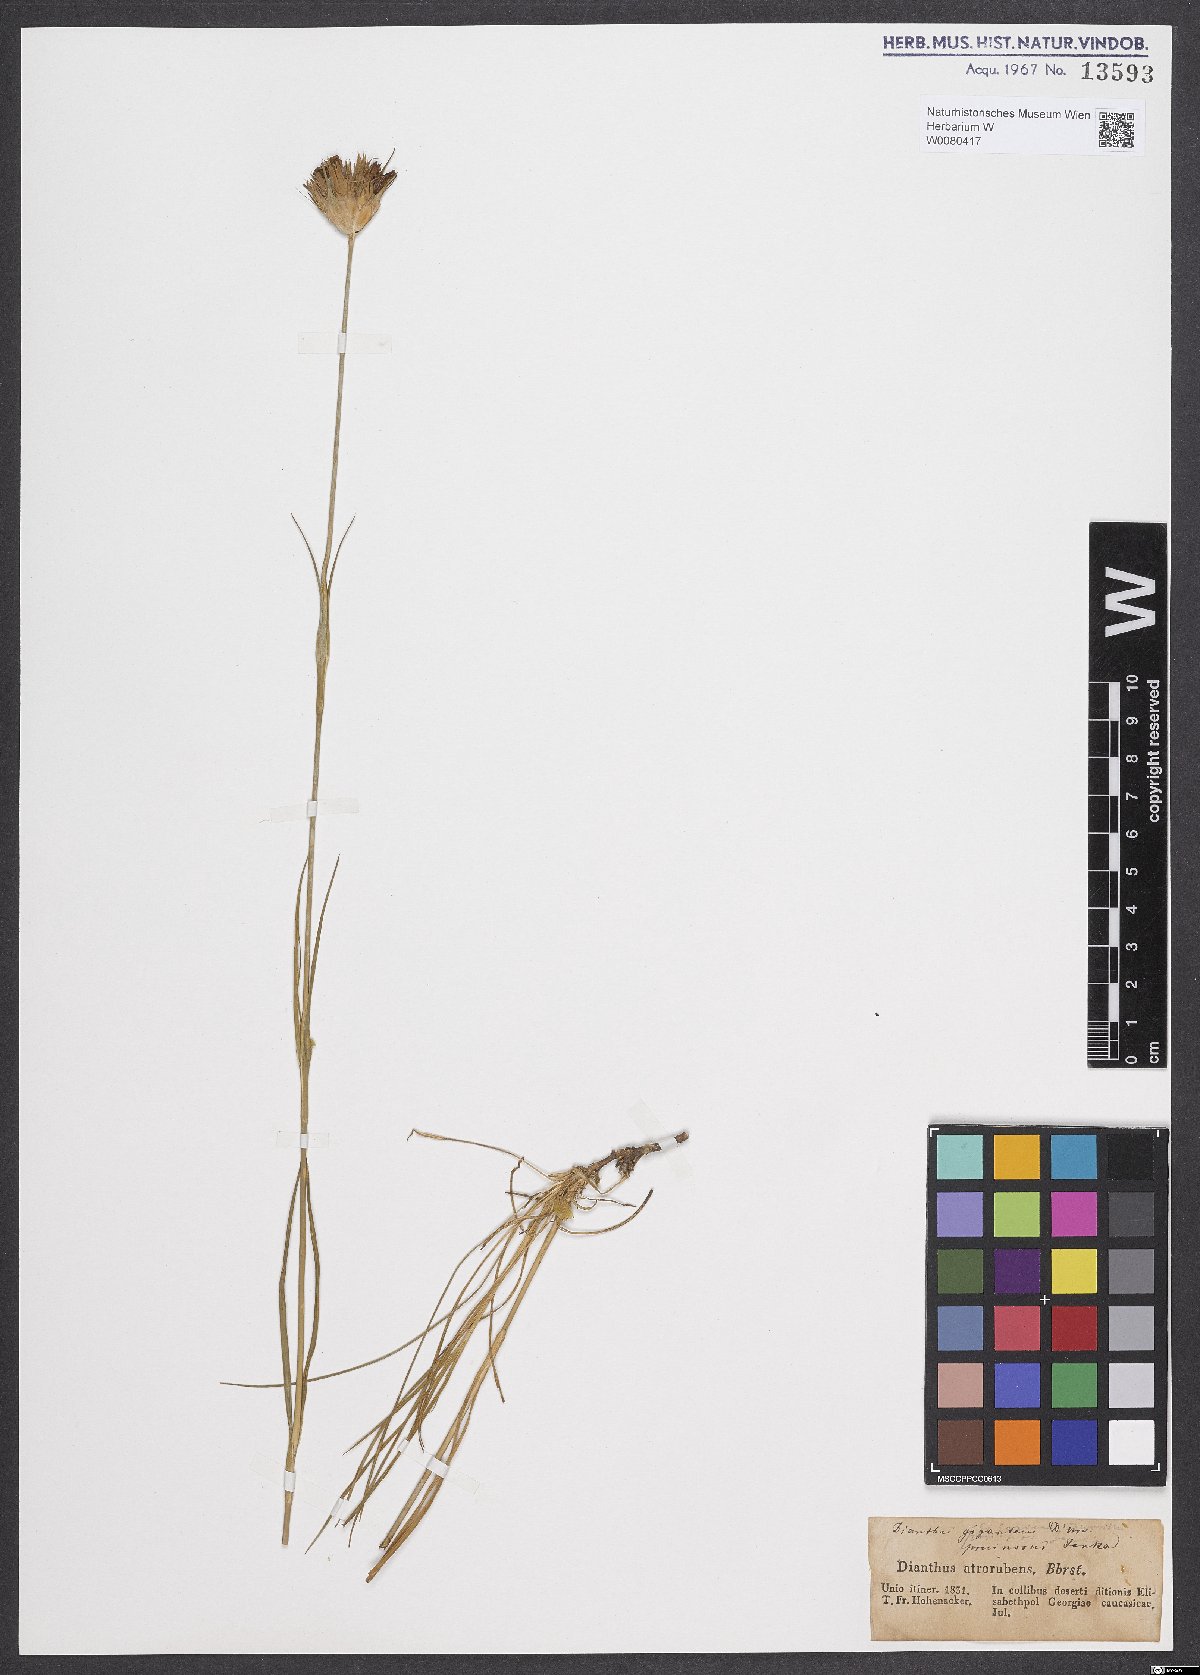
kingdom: Plantae
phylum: Tracheophyta
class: Magnoliopsida
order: Caryophyllales
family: Caryophyllaceae
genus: Dianthus
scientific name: Dianthus carthusianorum
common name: Carthusian pink
